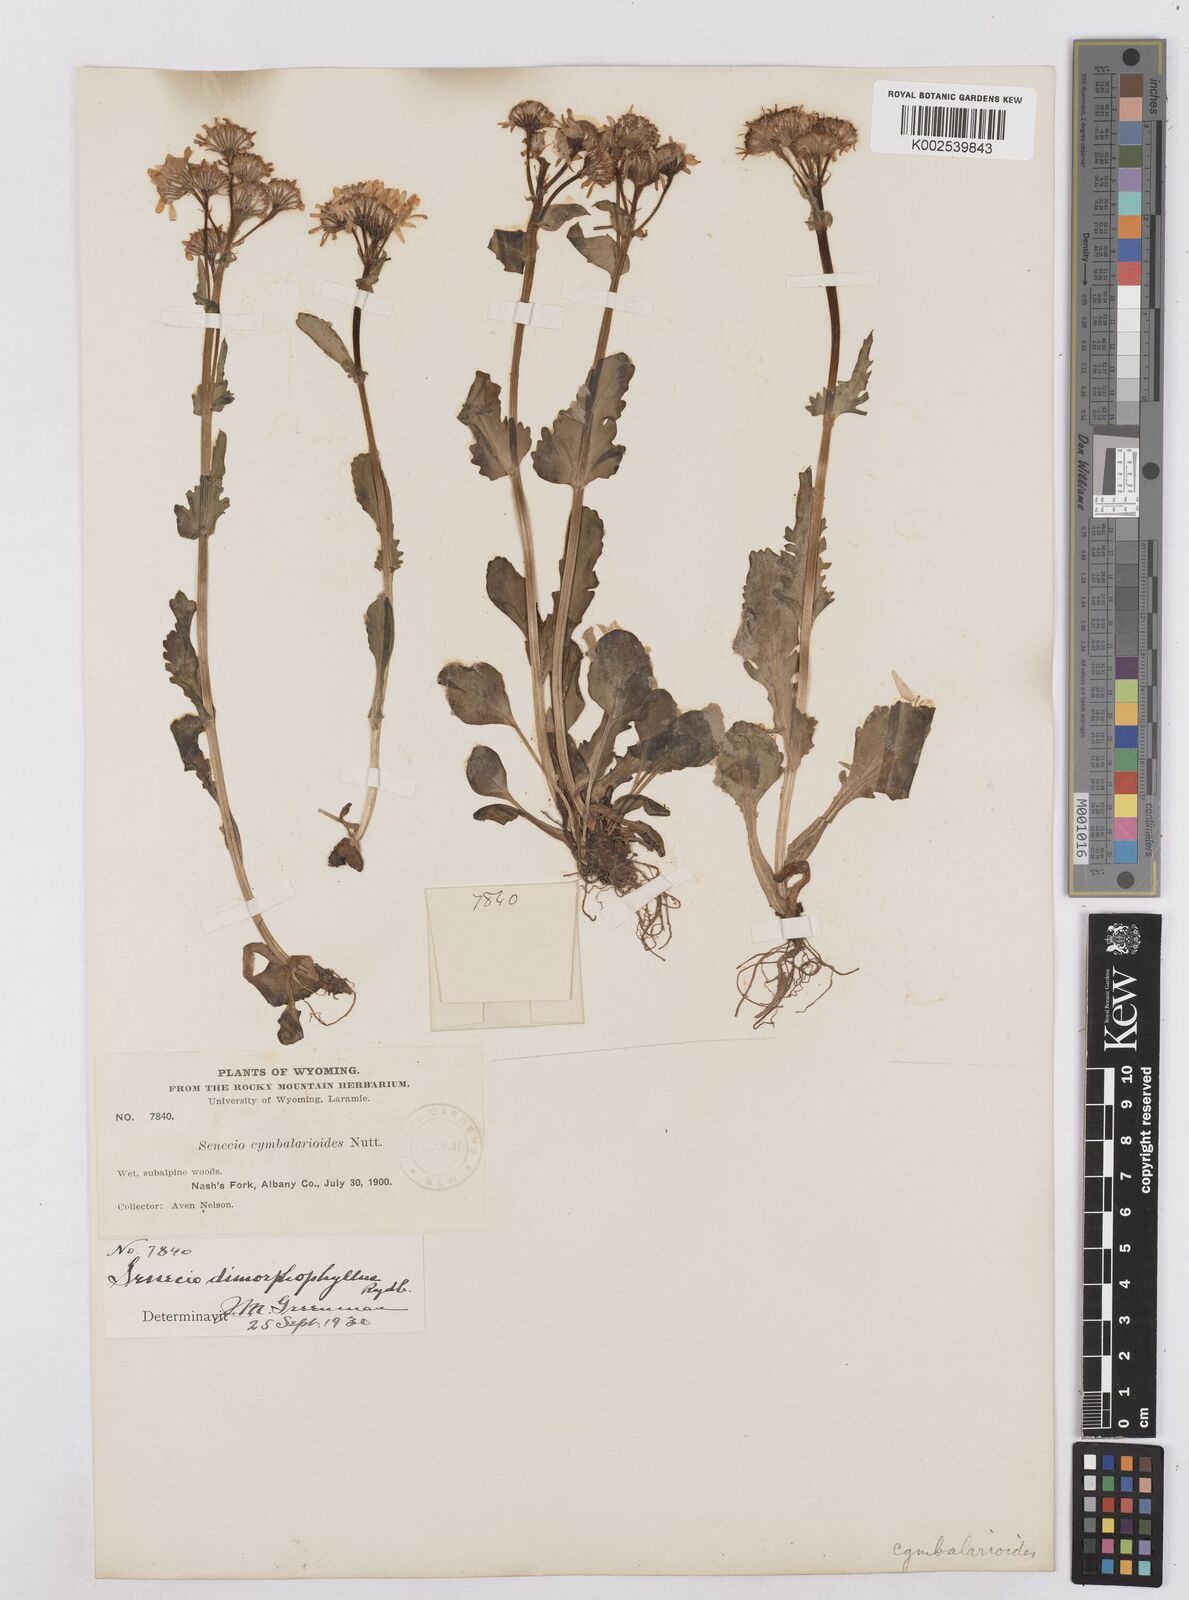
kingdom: Plantae
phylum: Tracheophyta
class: Magnoliopsida
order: Asterales
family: Asteraceae
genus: Packera
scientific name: Packera dimorphophylla
